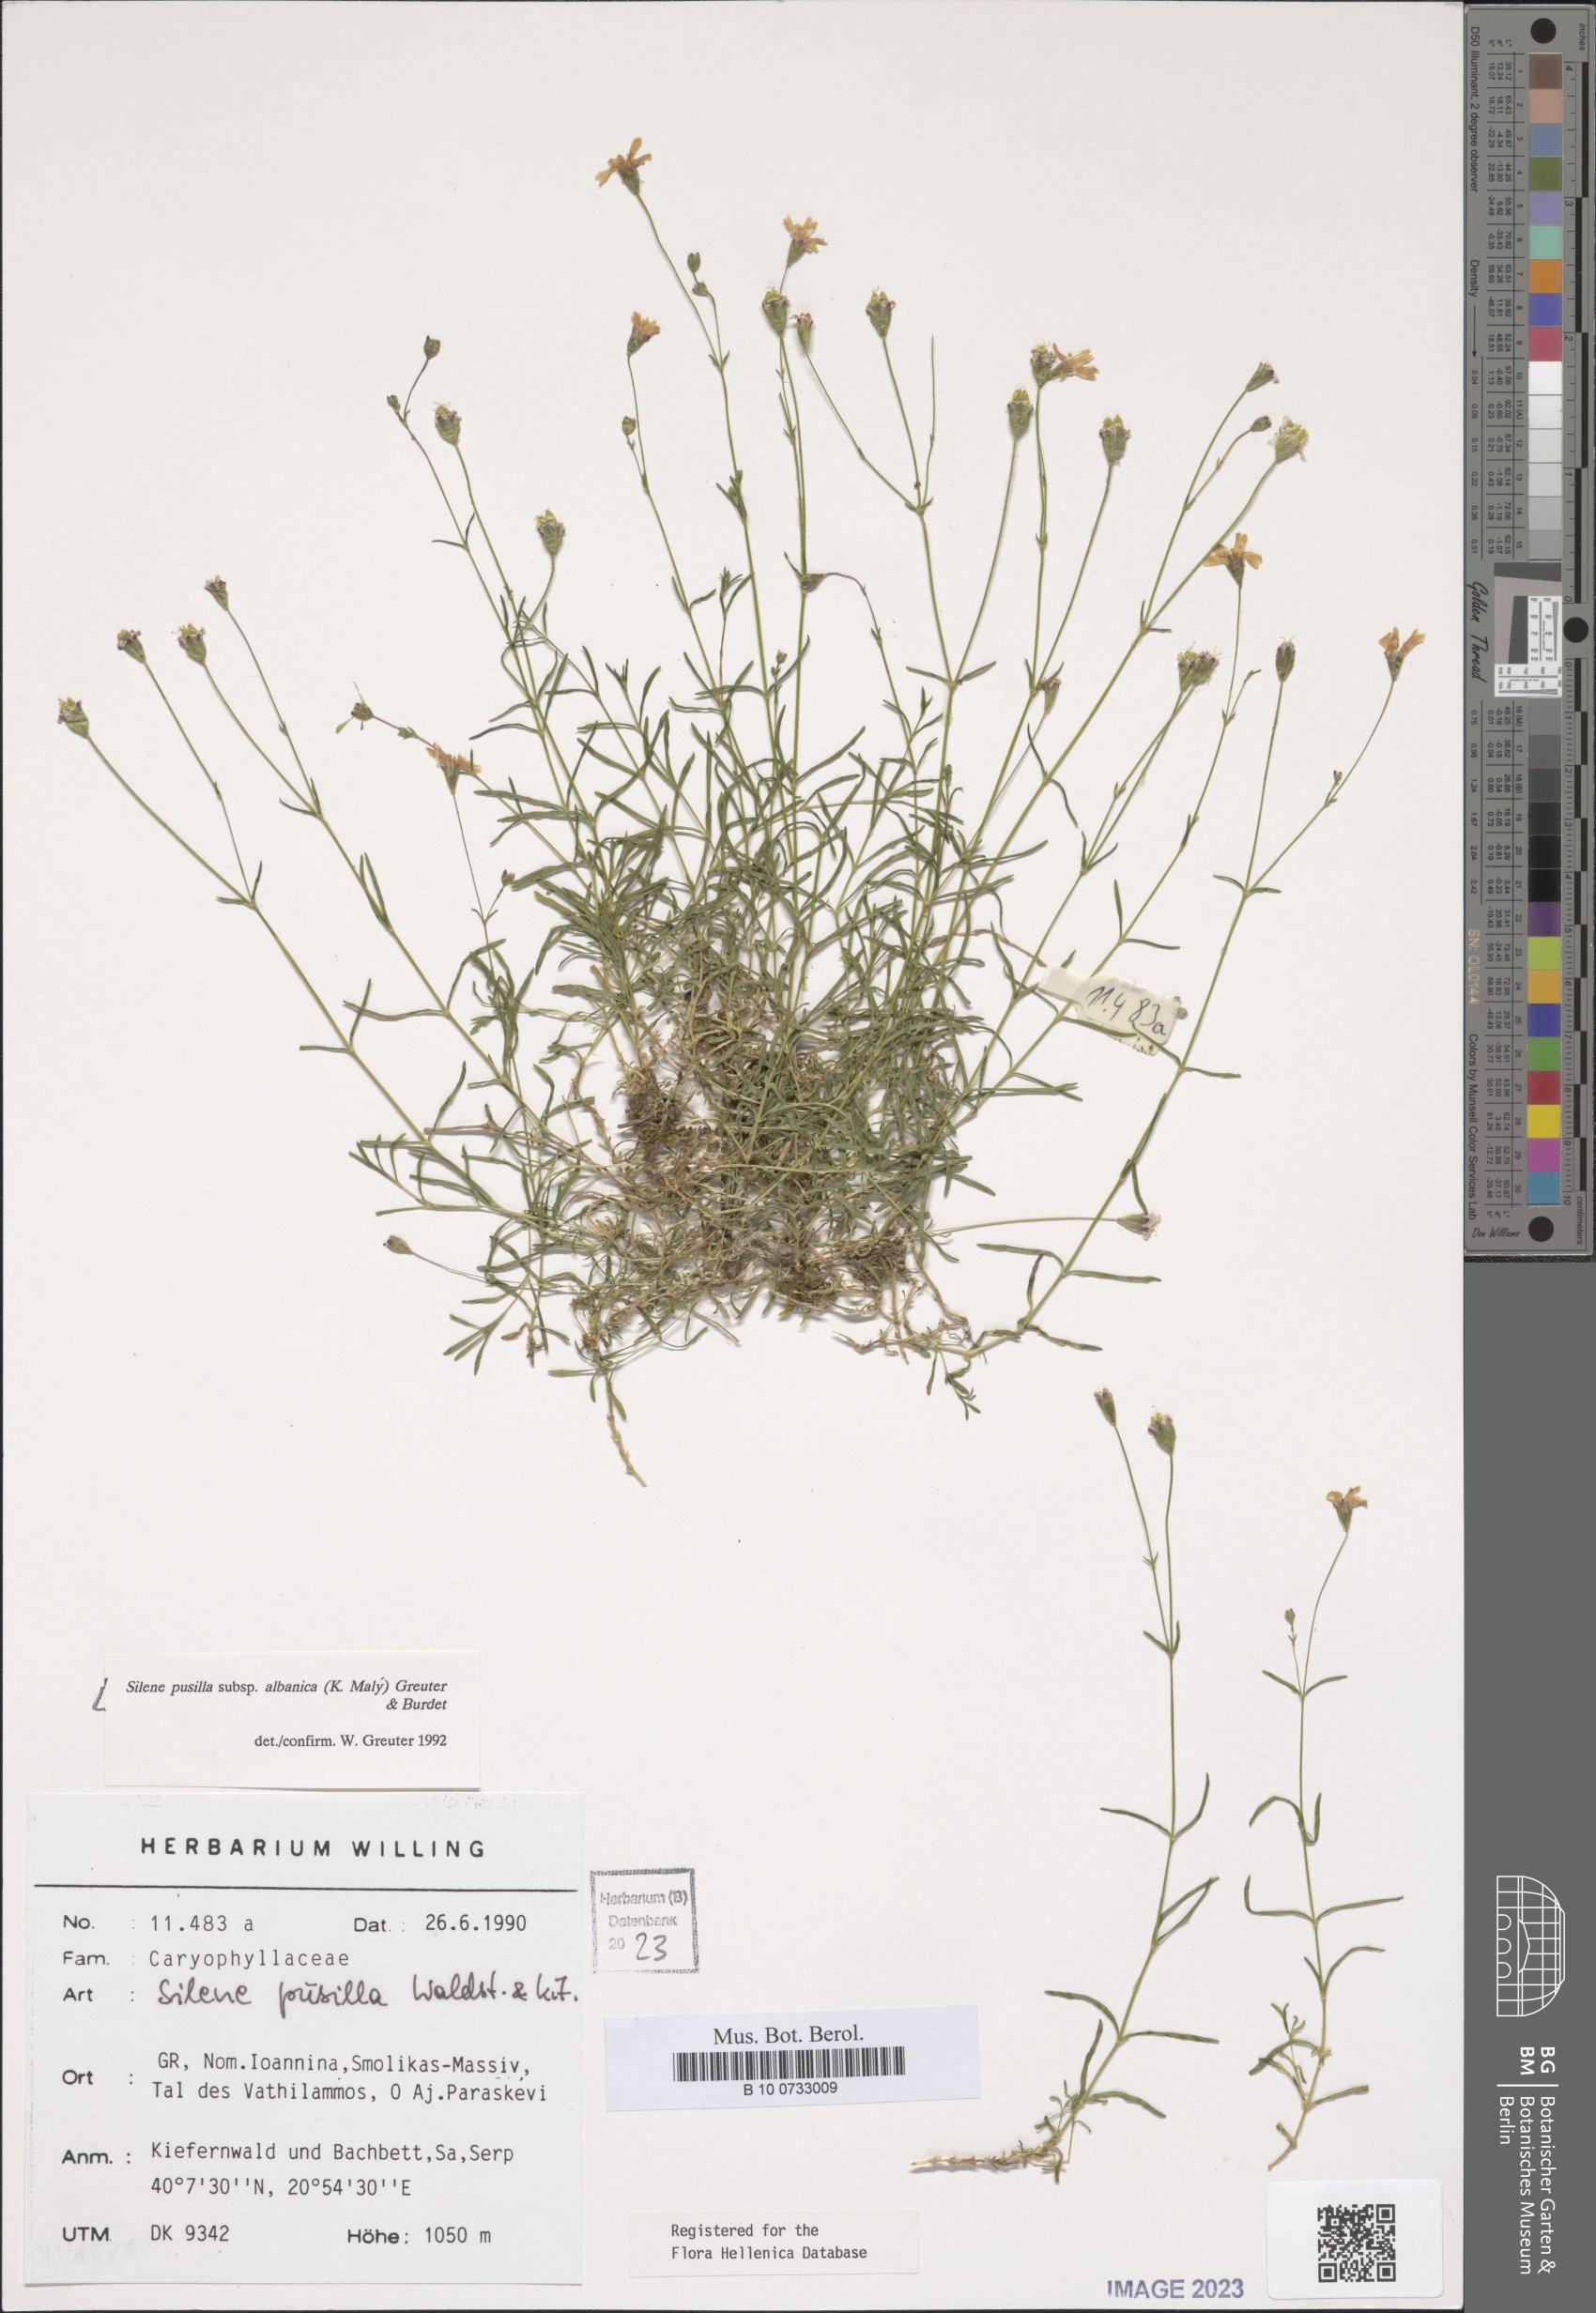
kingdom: Plantae
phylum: Tracheophyta
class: Magnoliopsida
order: Caryophyllales
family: Caryophyllaceae
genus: Heliosperma
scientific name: Heliosperma pusillum
